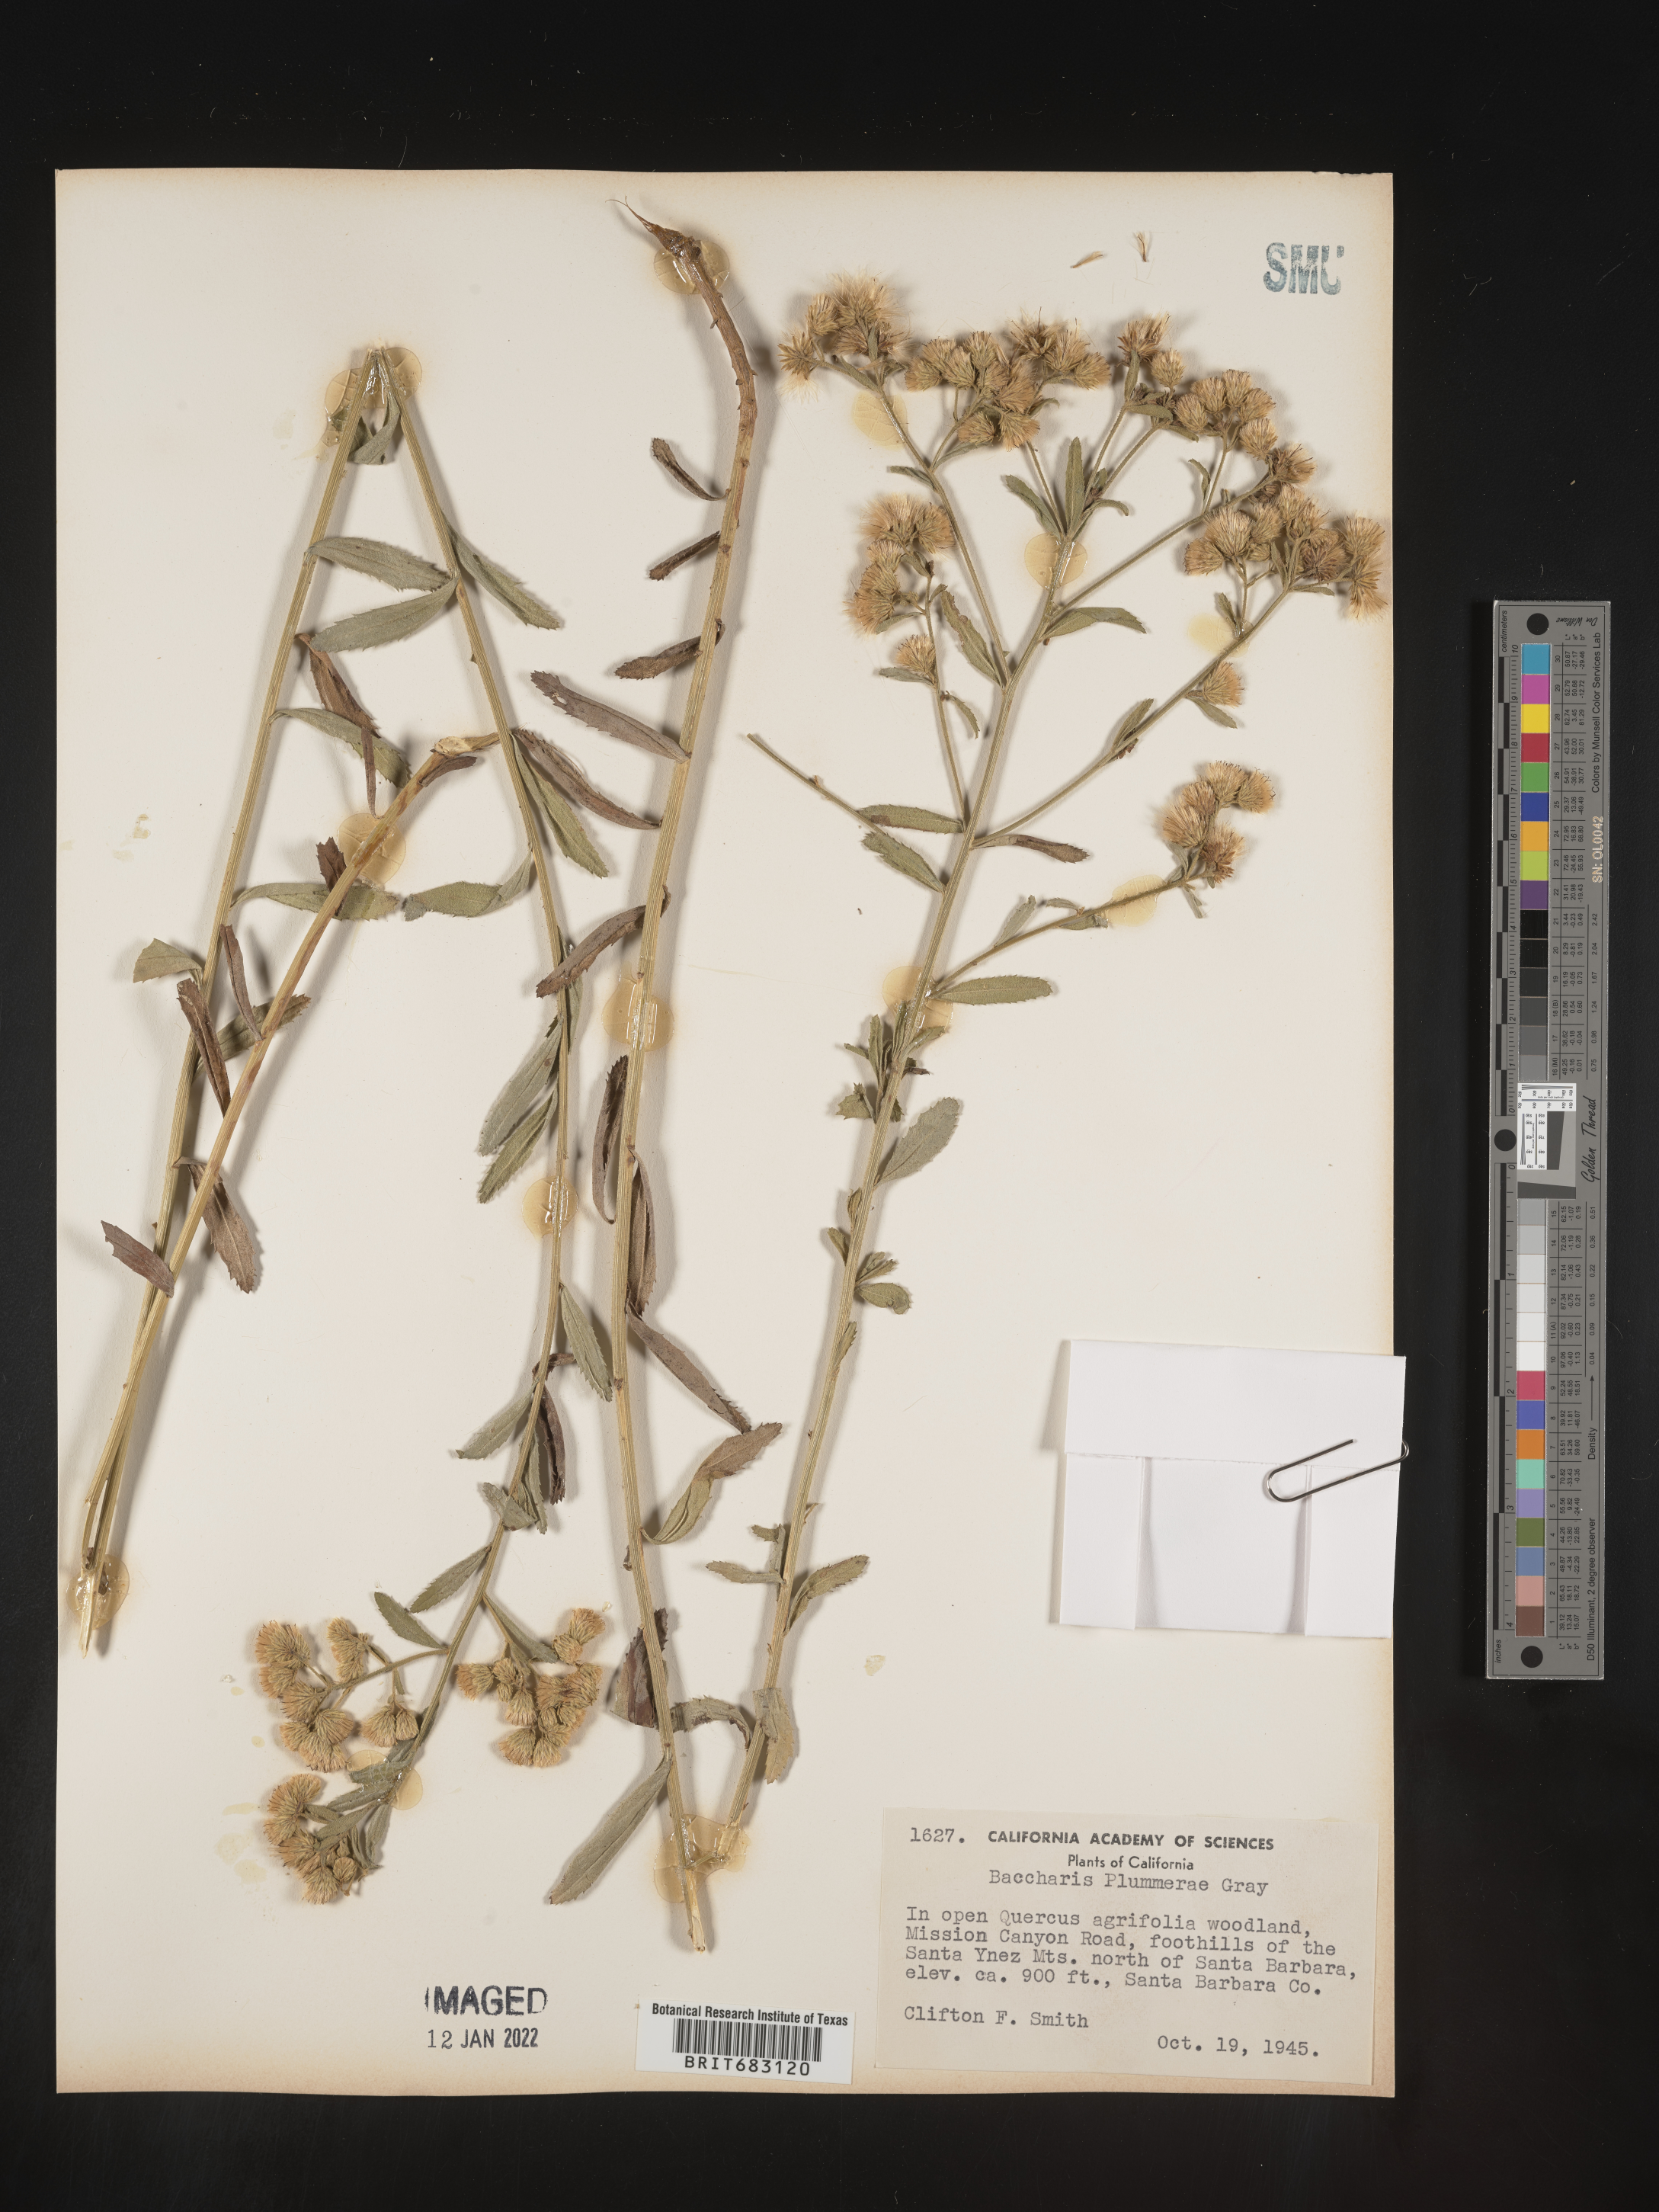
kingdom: Plantae
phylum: Tracheophyta
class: Magnoliopsida
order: Asterales
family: Asteraceae
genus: Baccharis
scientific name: Baccharis plummerae
